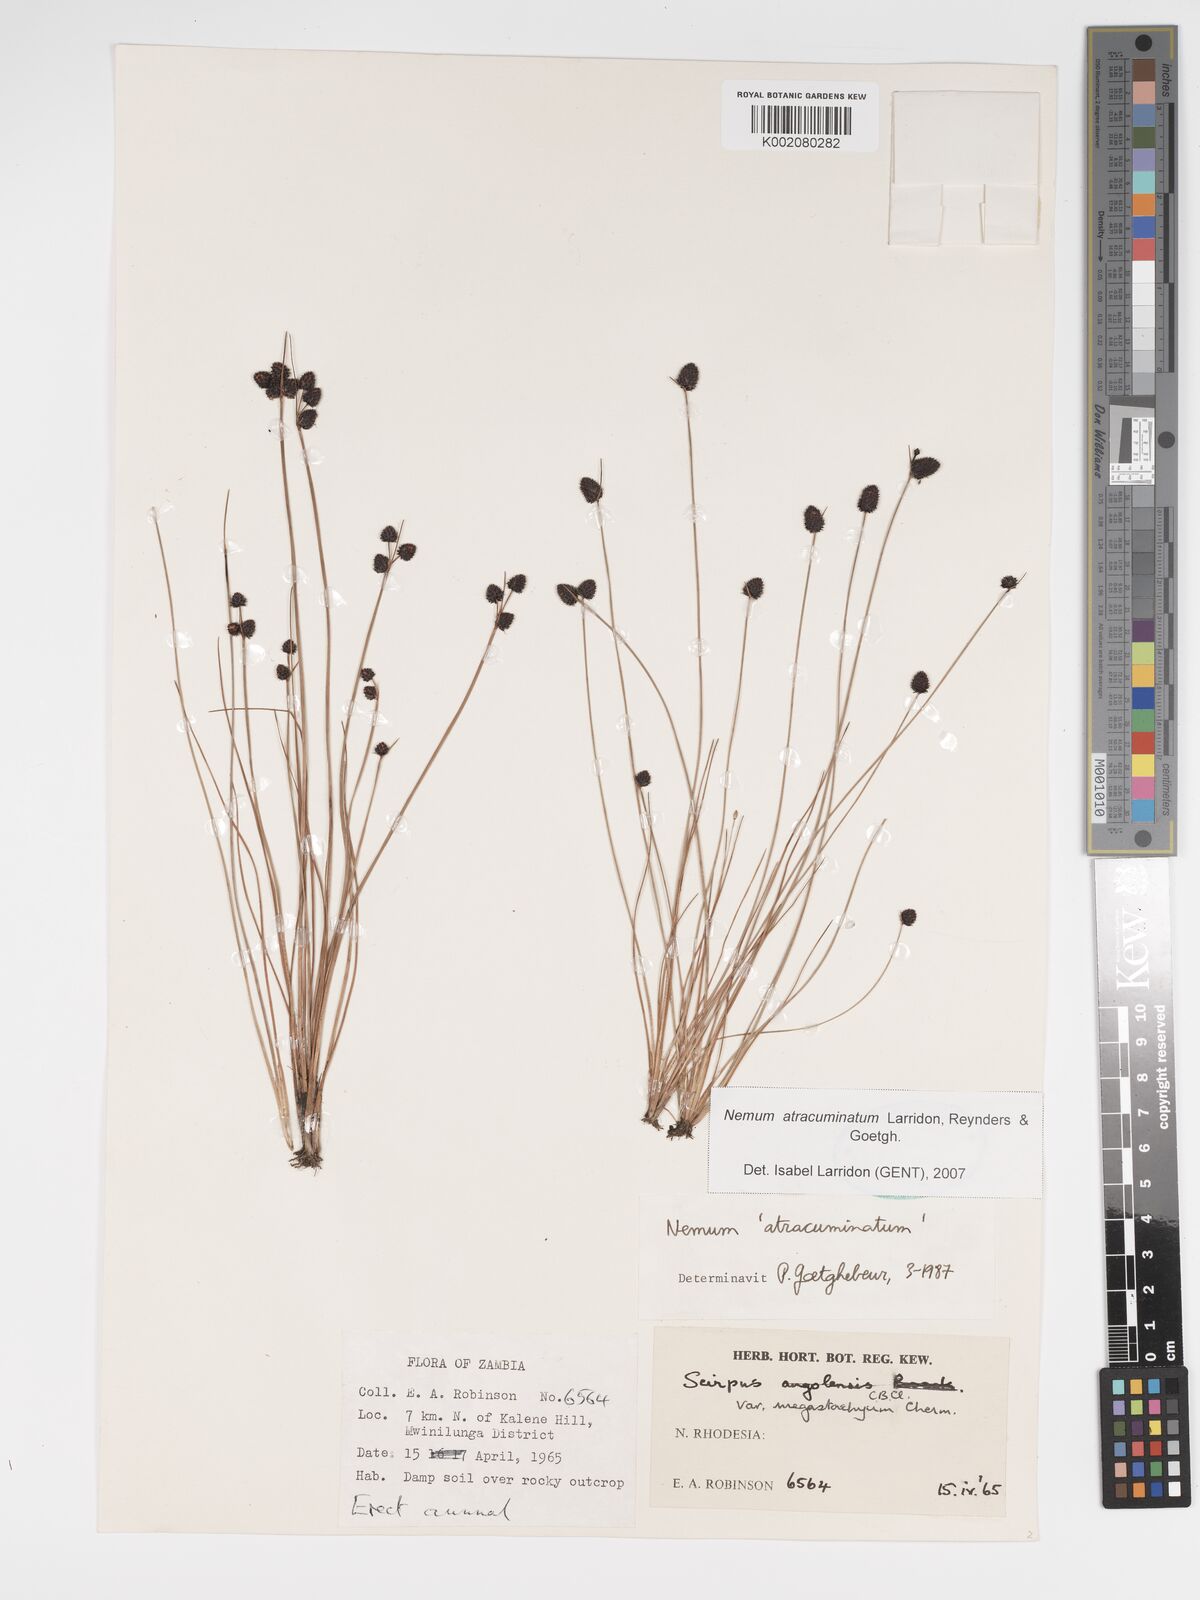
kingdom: Plantae
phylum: Tracheophyta
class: Liliopsida
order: Poales
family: Cyperaceae
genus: Bulbostylis
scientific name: Bulbostylis atracuminata
